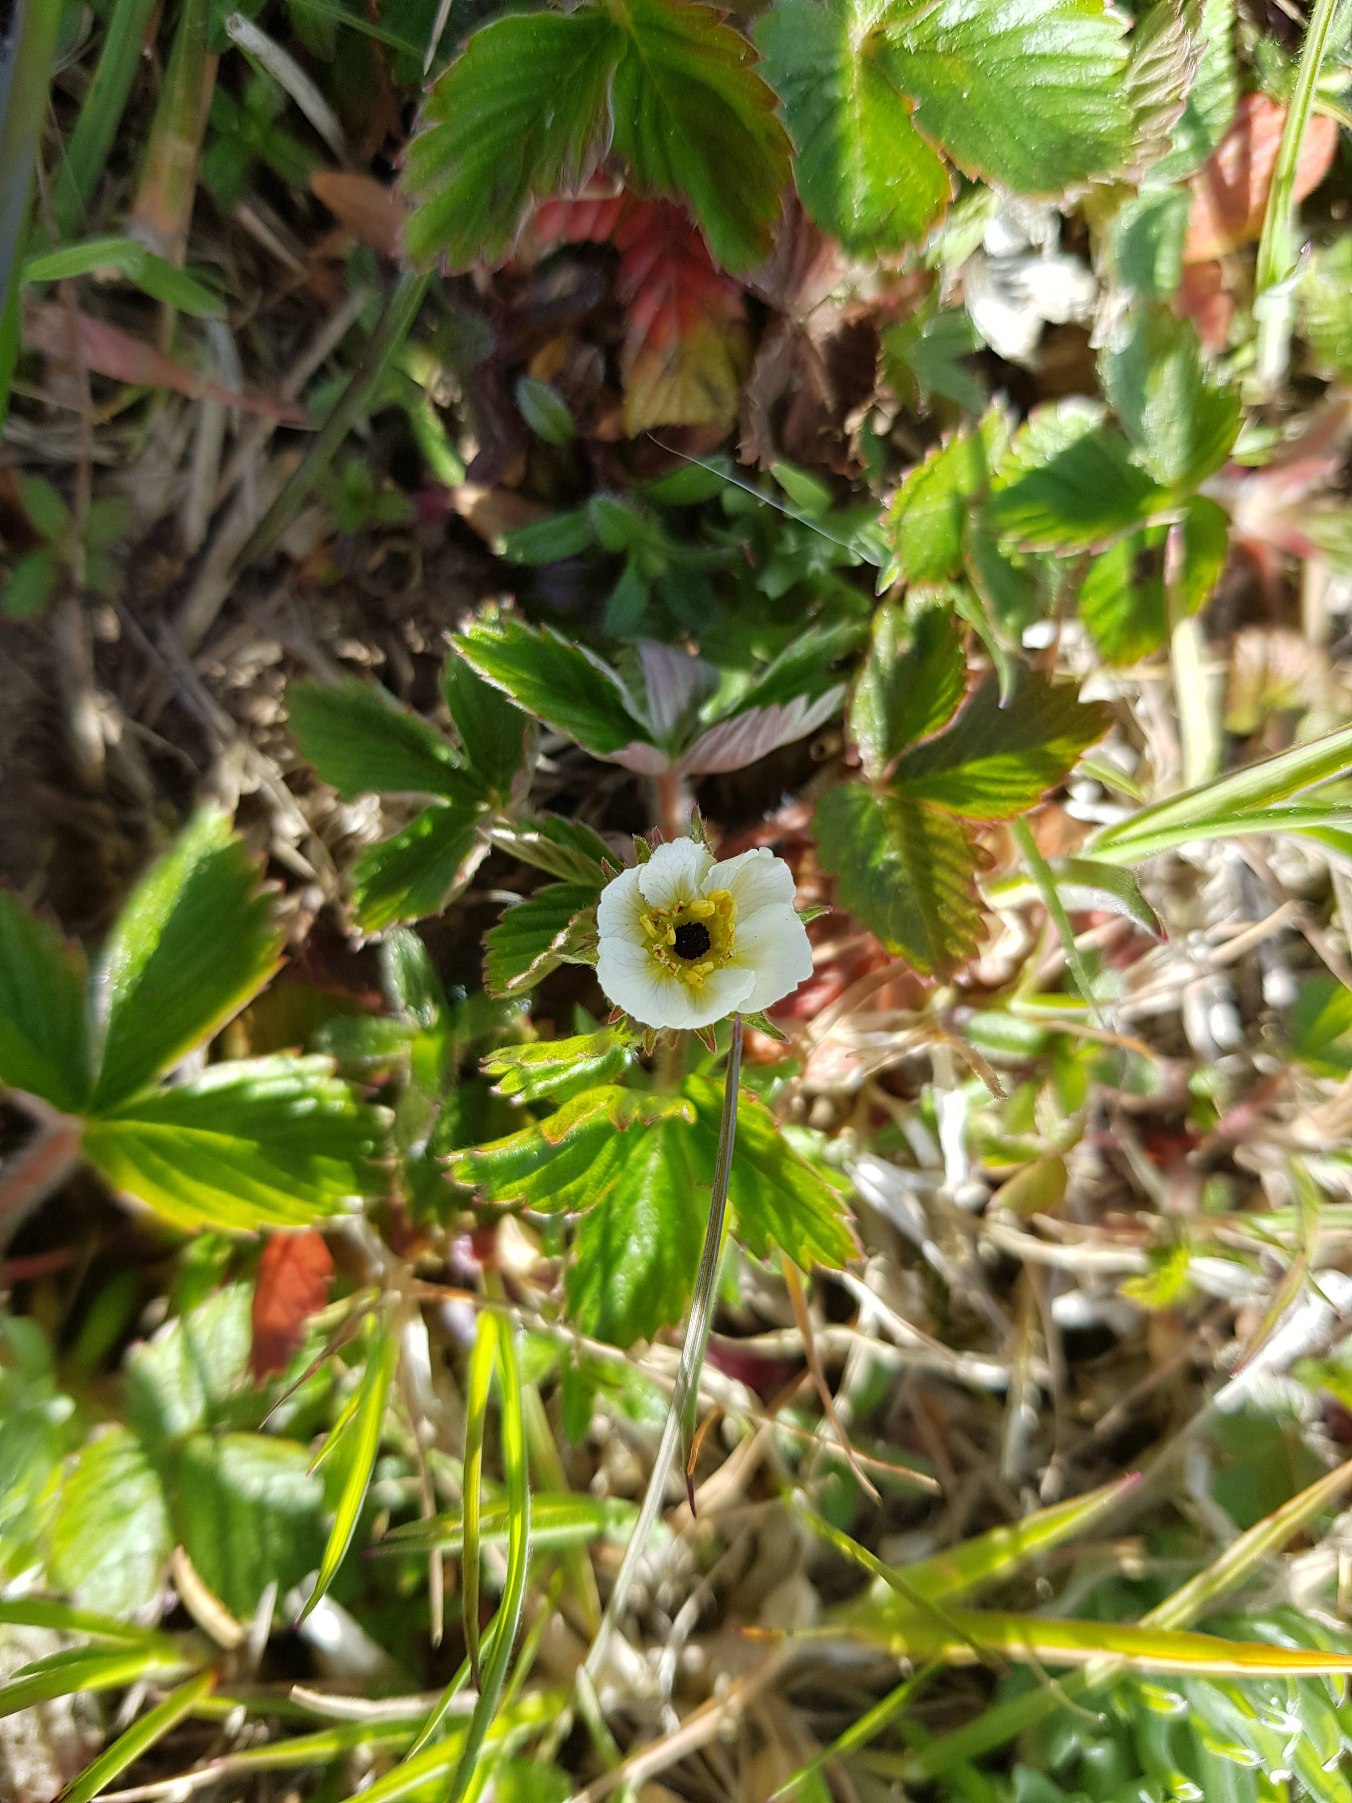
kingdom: Plantae
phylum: Tracheophyta
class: Magnoliopsida
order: Rosales
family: Rosaceae
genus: Fragaria
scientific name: Fragaria vesca
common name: Skov-jordbær
